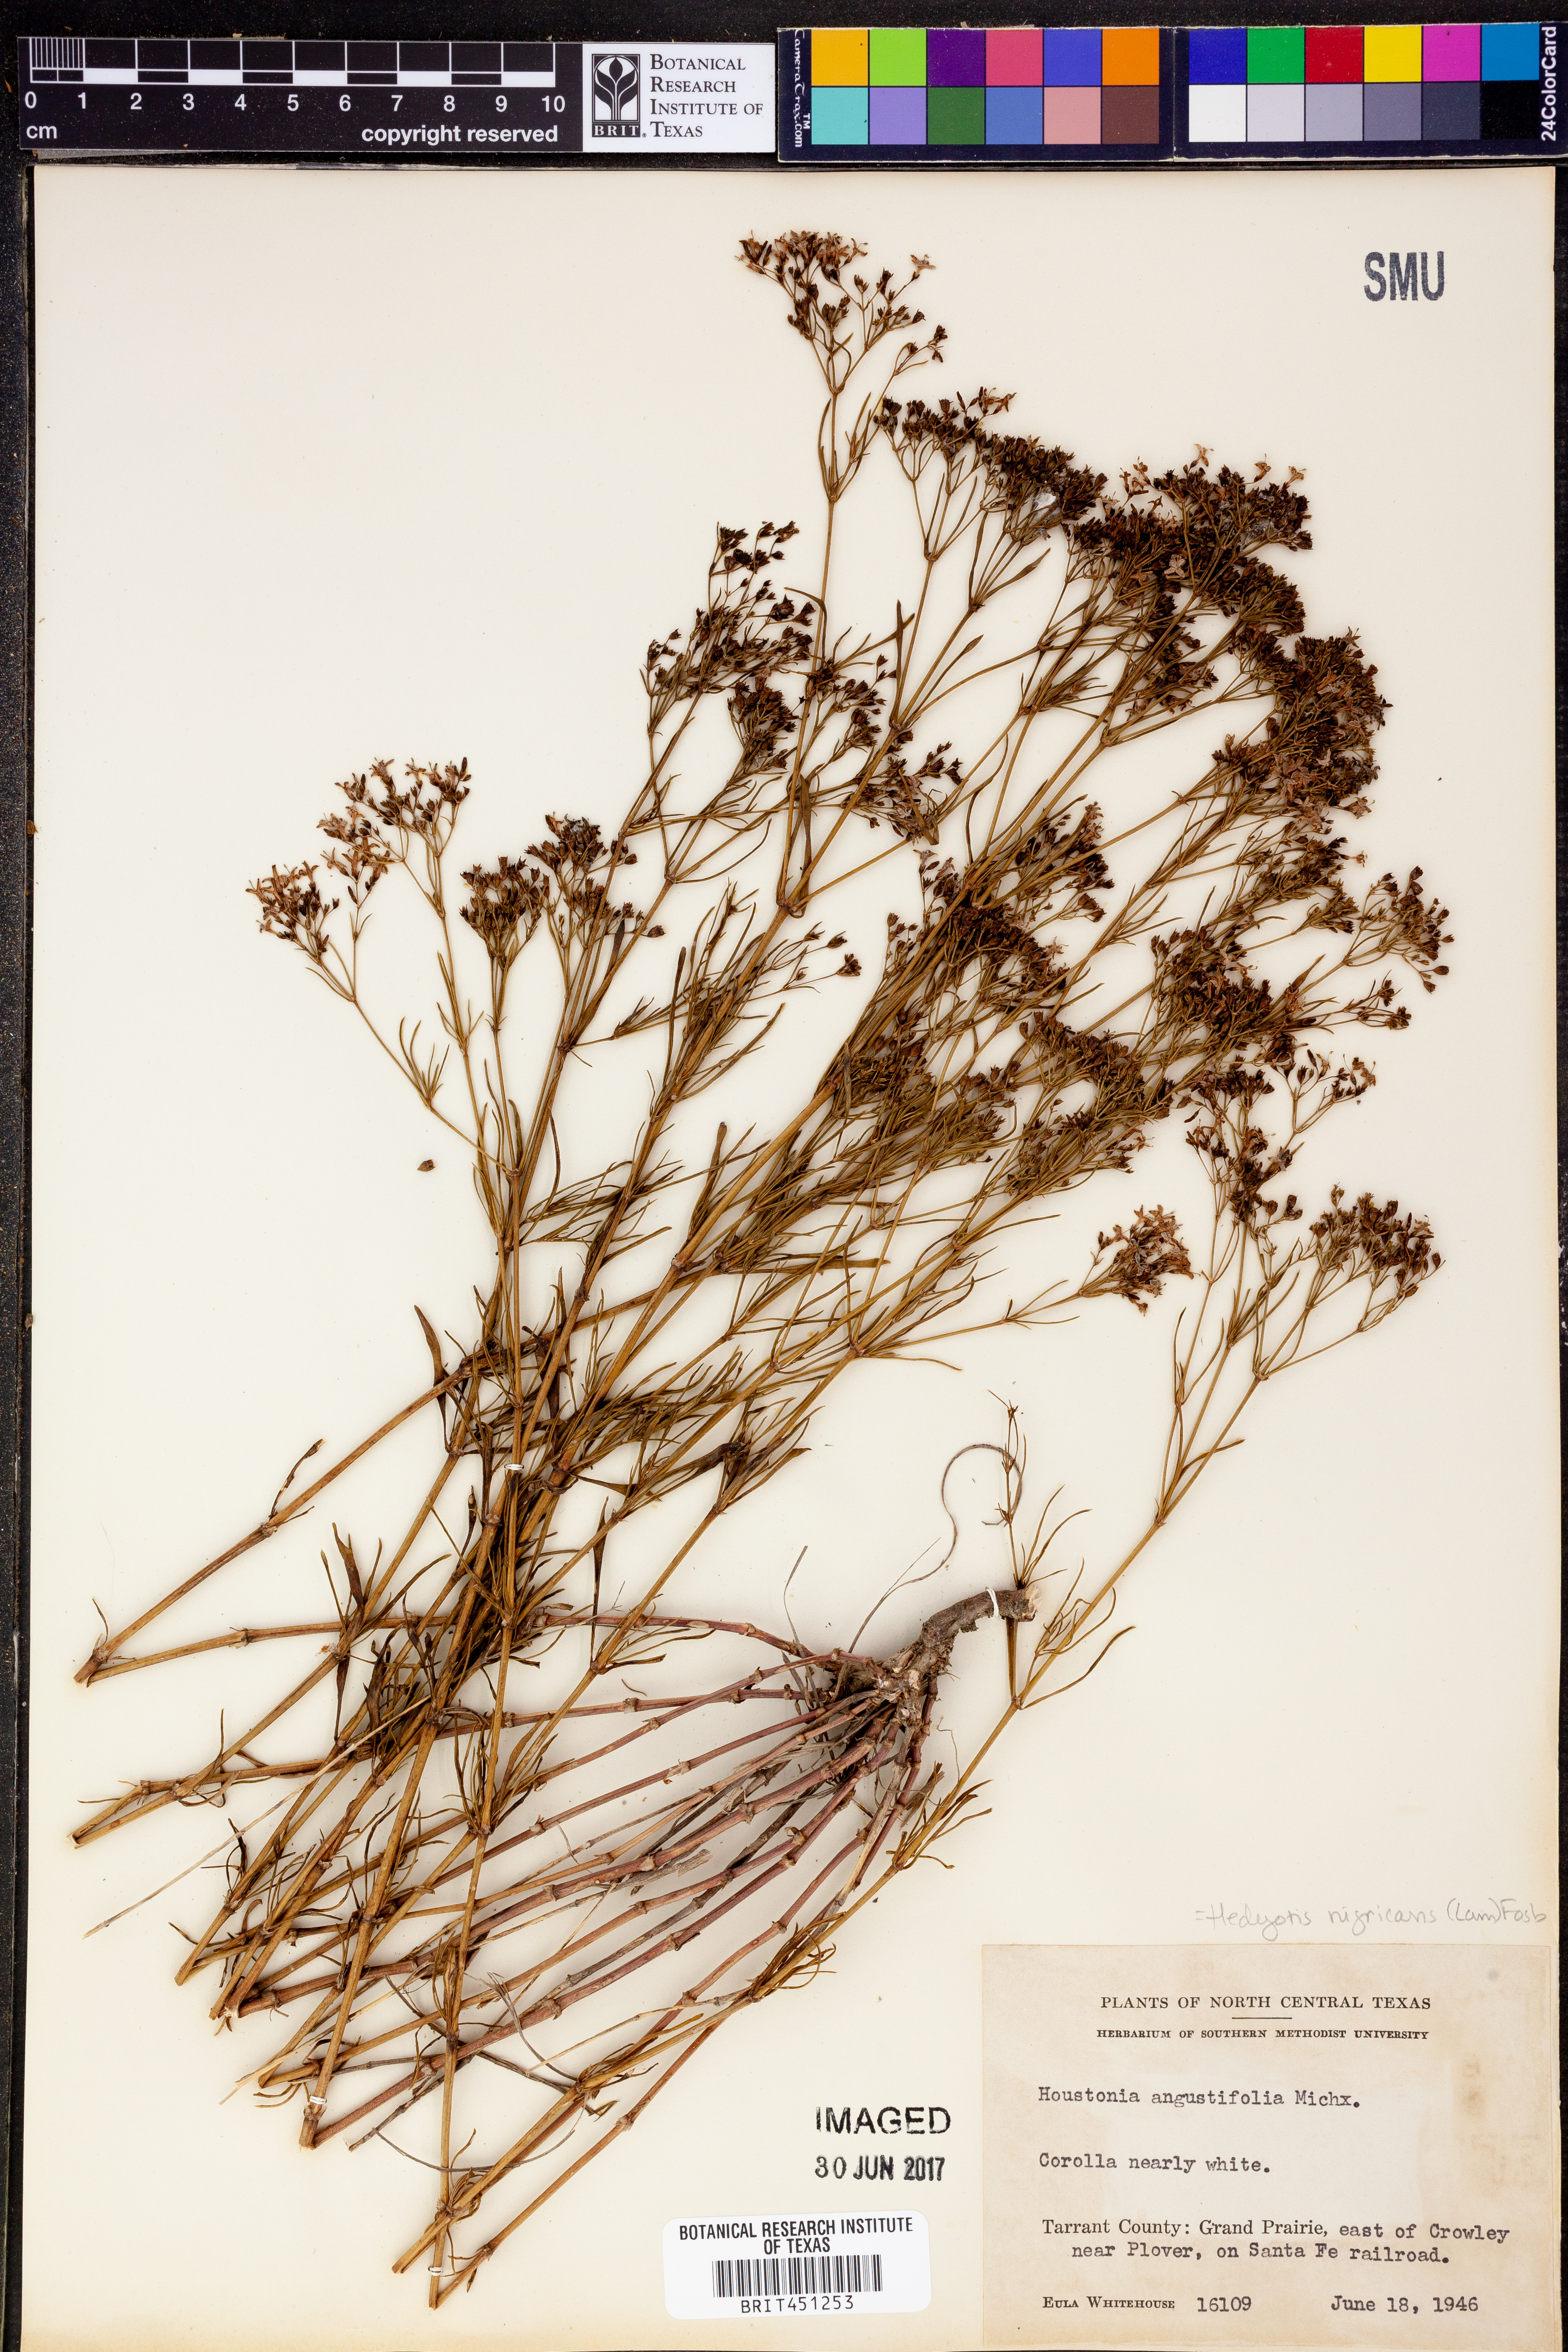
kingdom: Plantae
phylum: Tracheophyta
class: Magnoliopsida
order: Gentianales
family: Rubiaceae
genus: Stenaria
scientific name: Stenaria nigricans
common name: Diamondflowers
